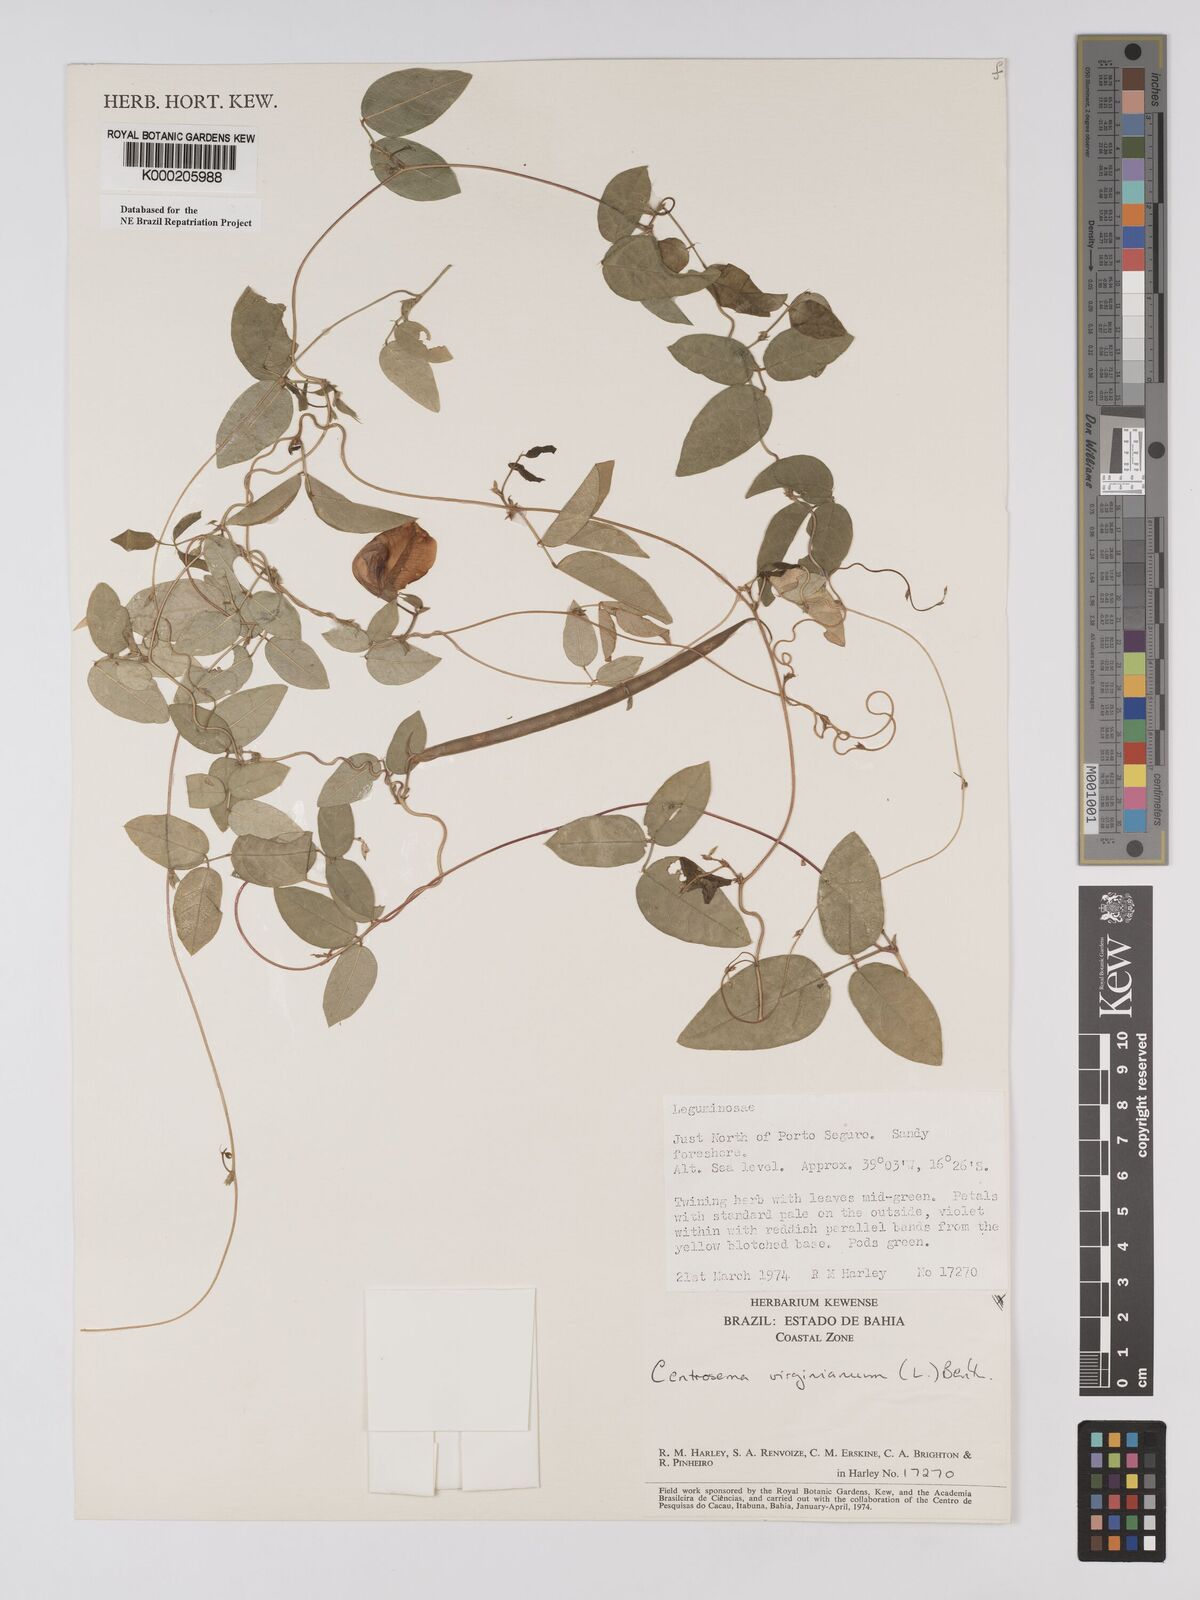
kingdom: Plantae
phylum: Tracheophyta
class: Magnoliopsida
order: Fabales
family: Fabaceae
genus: Centrosema
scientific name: Centrosema virginianum
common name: Butterfly-pea
